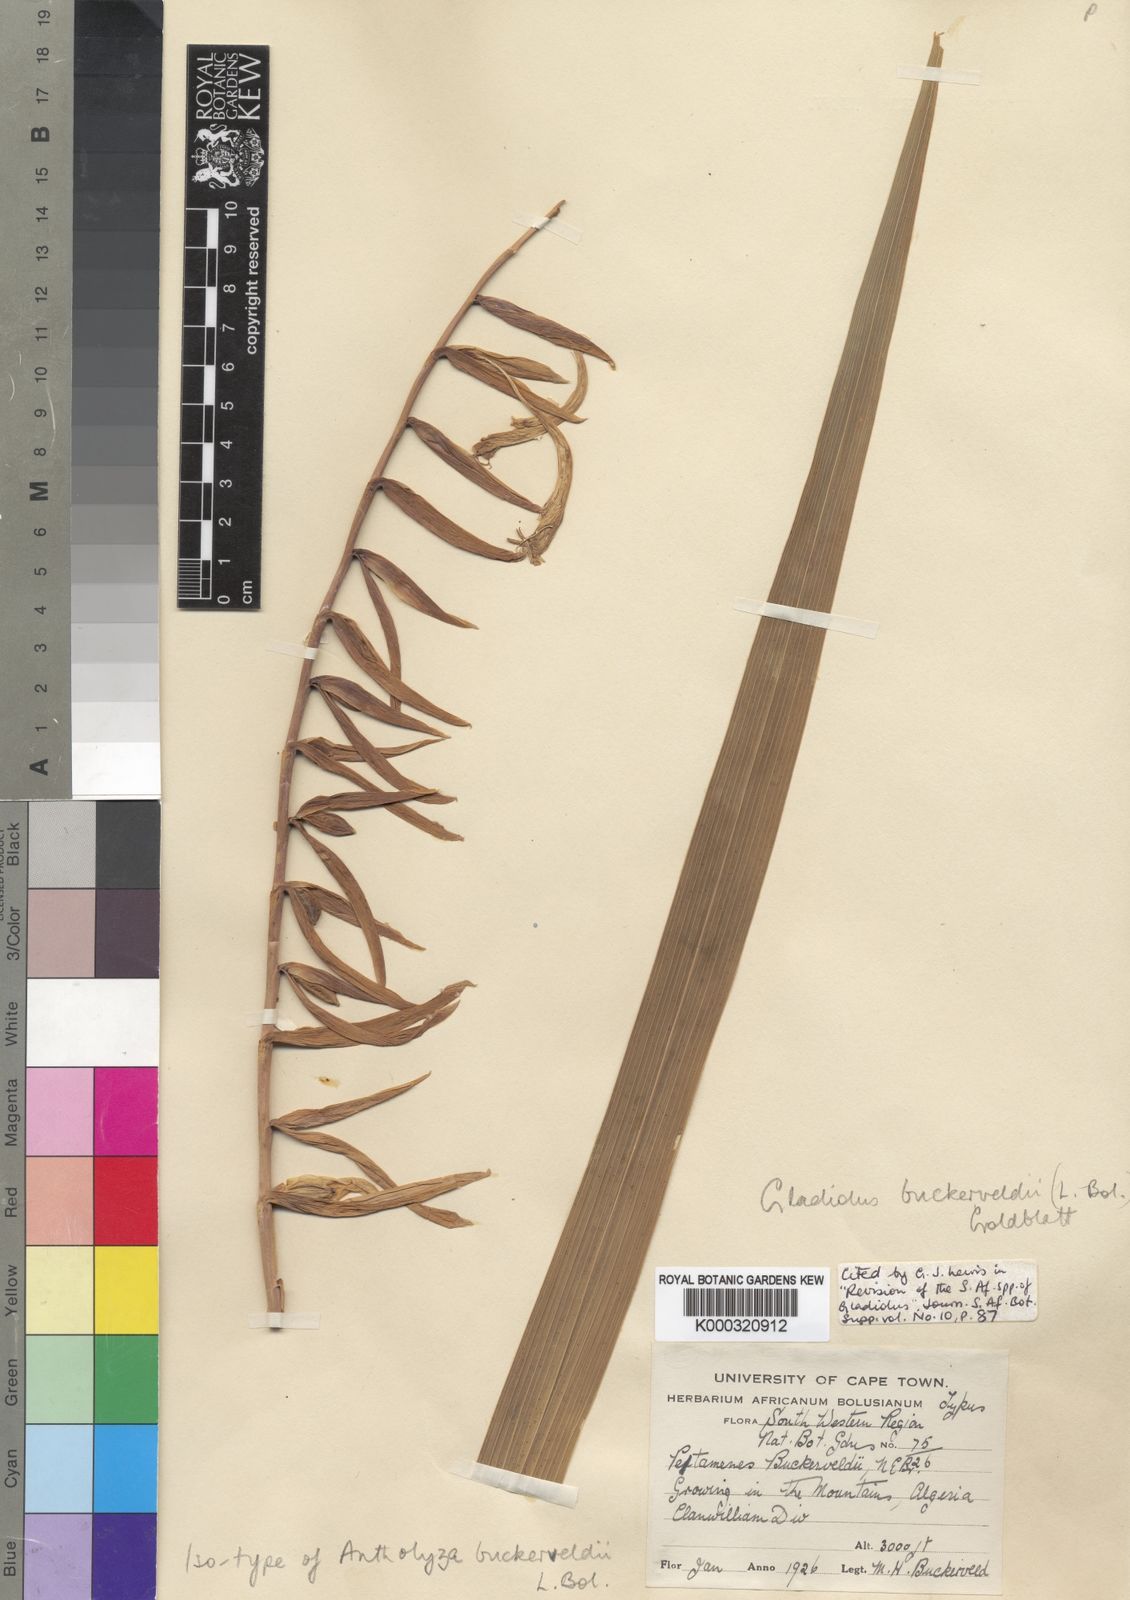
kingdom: Plantae
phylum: Tracheophyta
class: Liliopsida
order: Asparagales
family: Iridaceae
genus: Gladiolus
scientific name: Gladiolus buckerveldii
